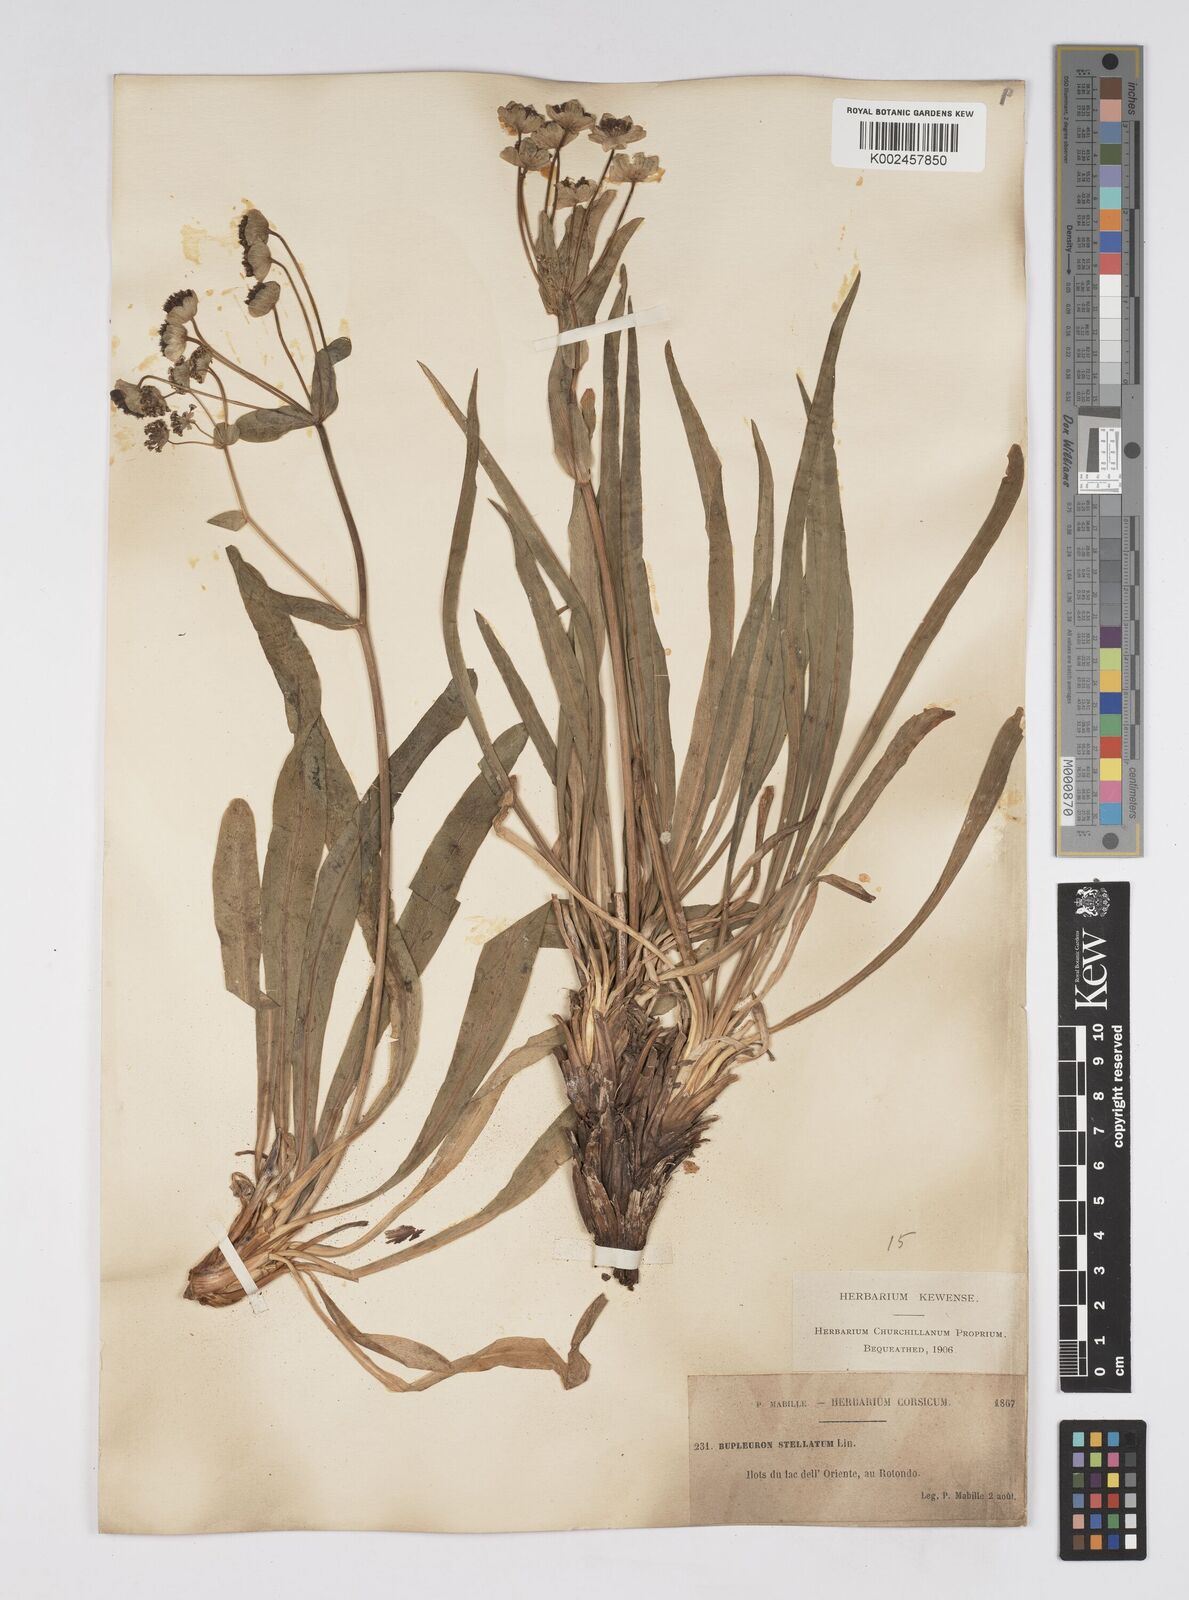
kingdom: Plantae
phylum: Tracheophyta
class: Magnoliopsida
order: Apiales
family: Apiaceae
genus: Bupleurum
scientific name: Bupleurum stellatum
